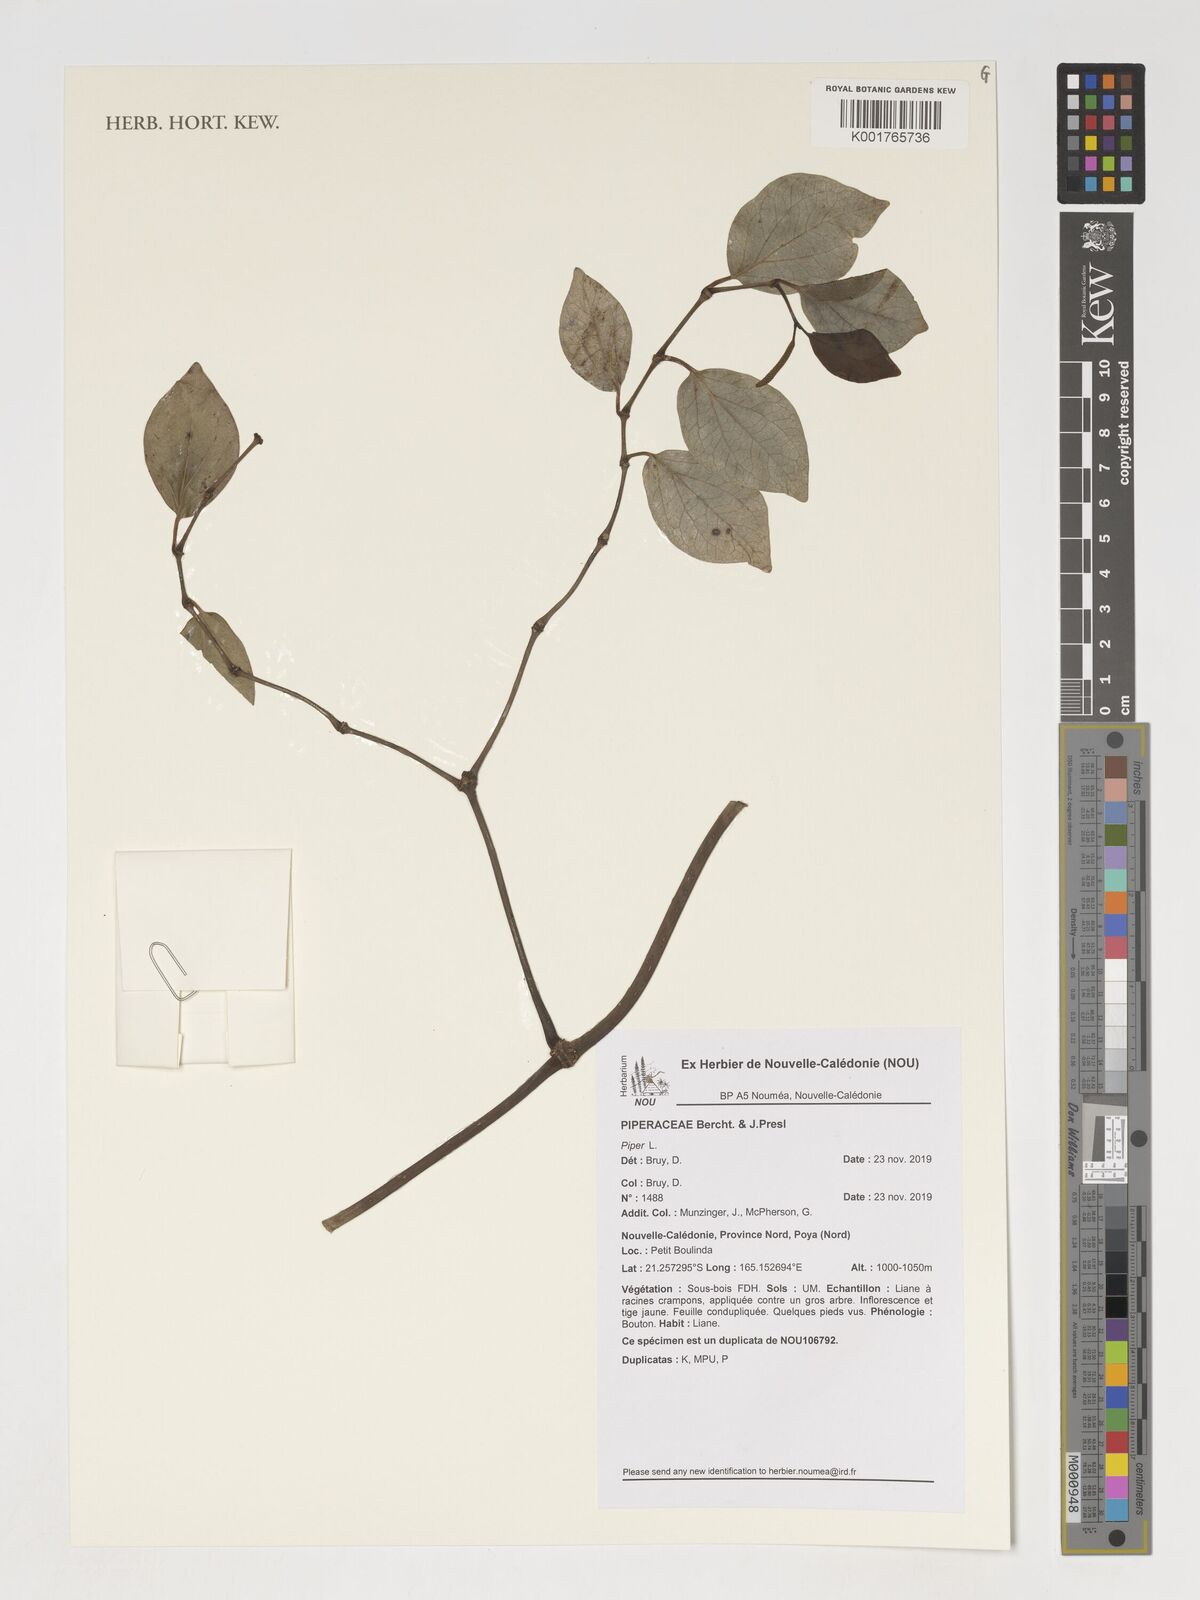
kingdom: Plantae
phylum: Tracheophyta
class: Magnoliopsida
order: Piperales
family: Piperaceae
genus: Piper
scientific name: Piper
